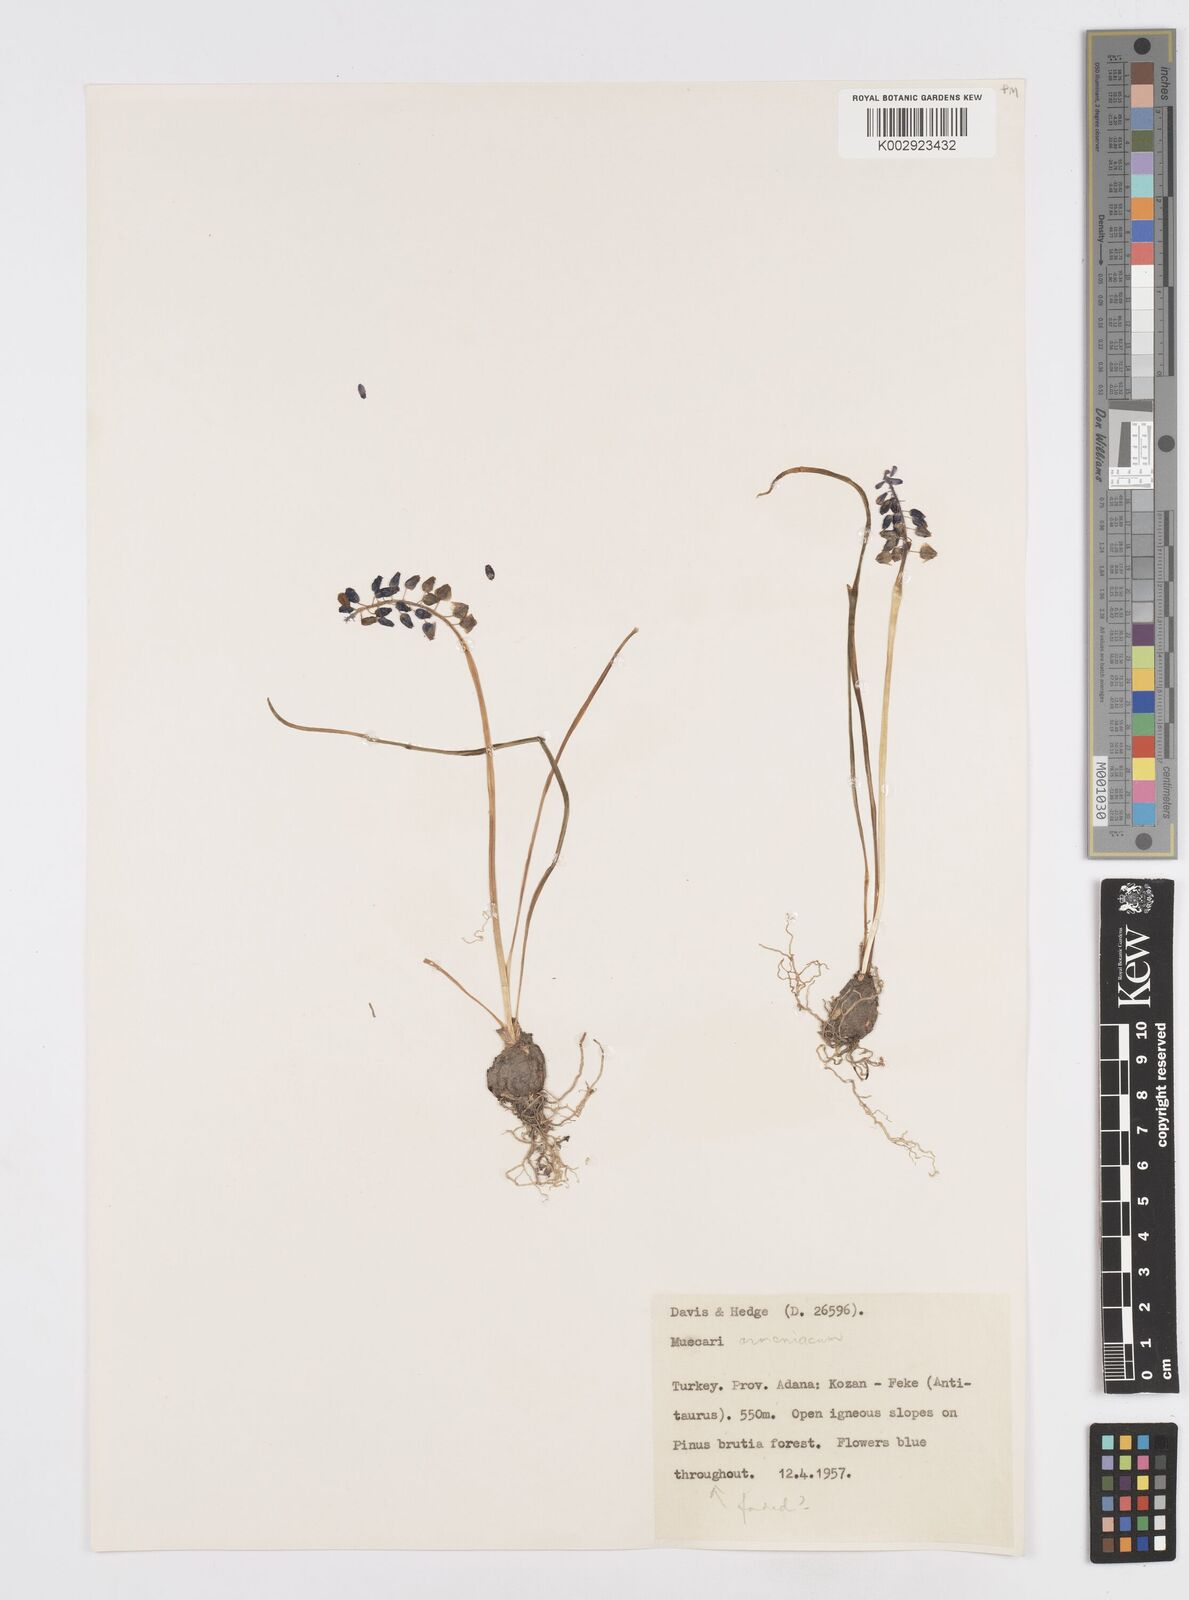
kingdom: Plantae
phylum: Tracheophyta
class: Liliopsida
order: Asparagales
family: Asparagaceae
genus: Muscari
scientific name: Muscari neglectum
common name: Grape-hyacinth
